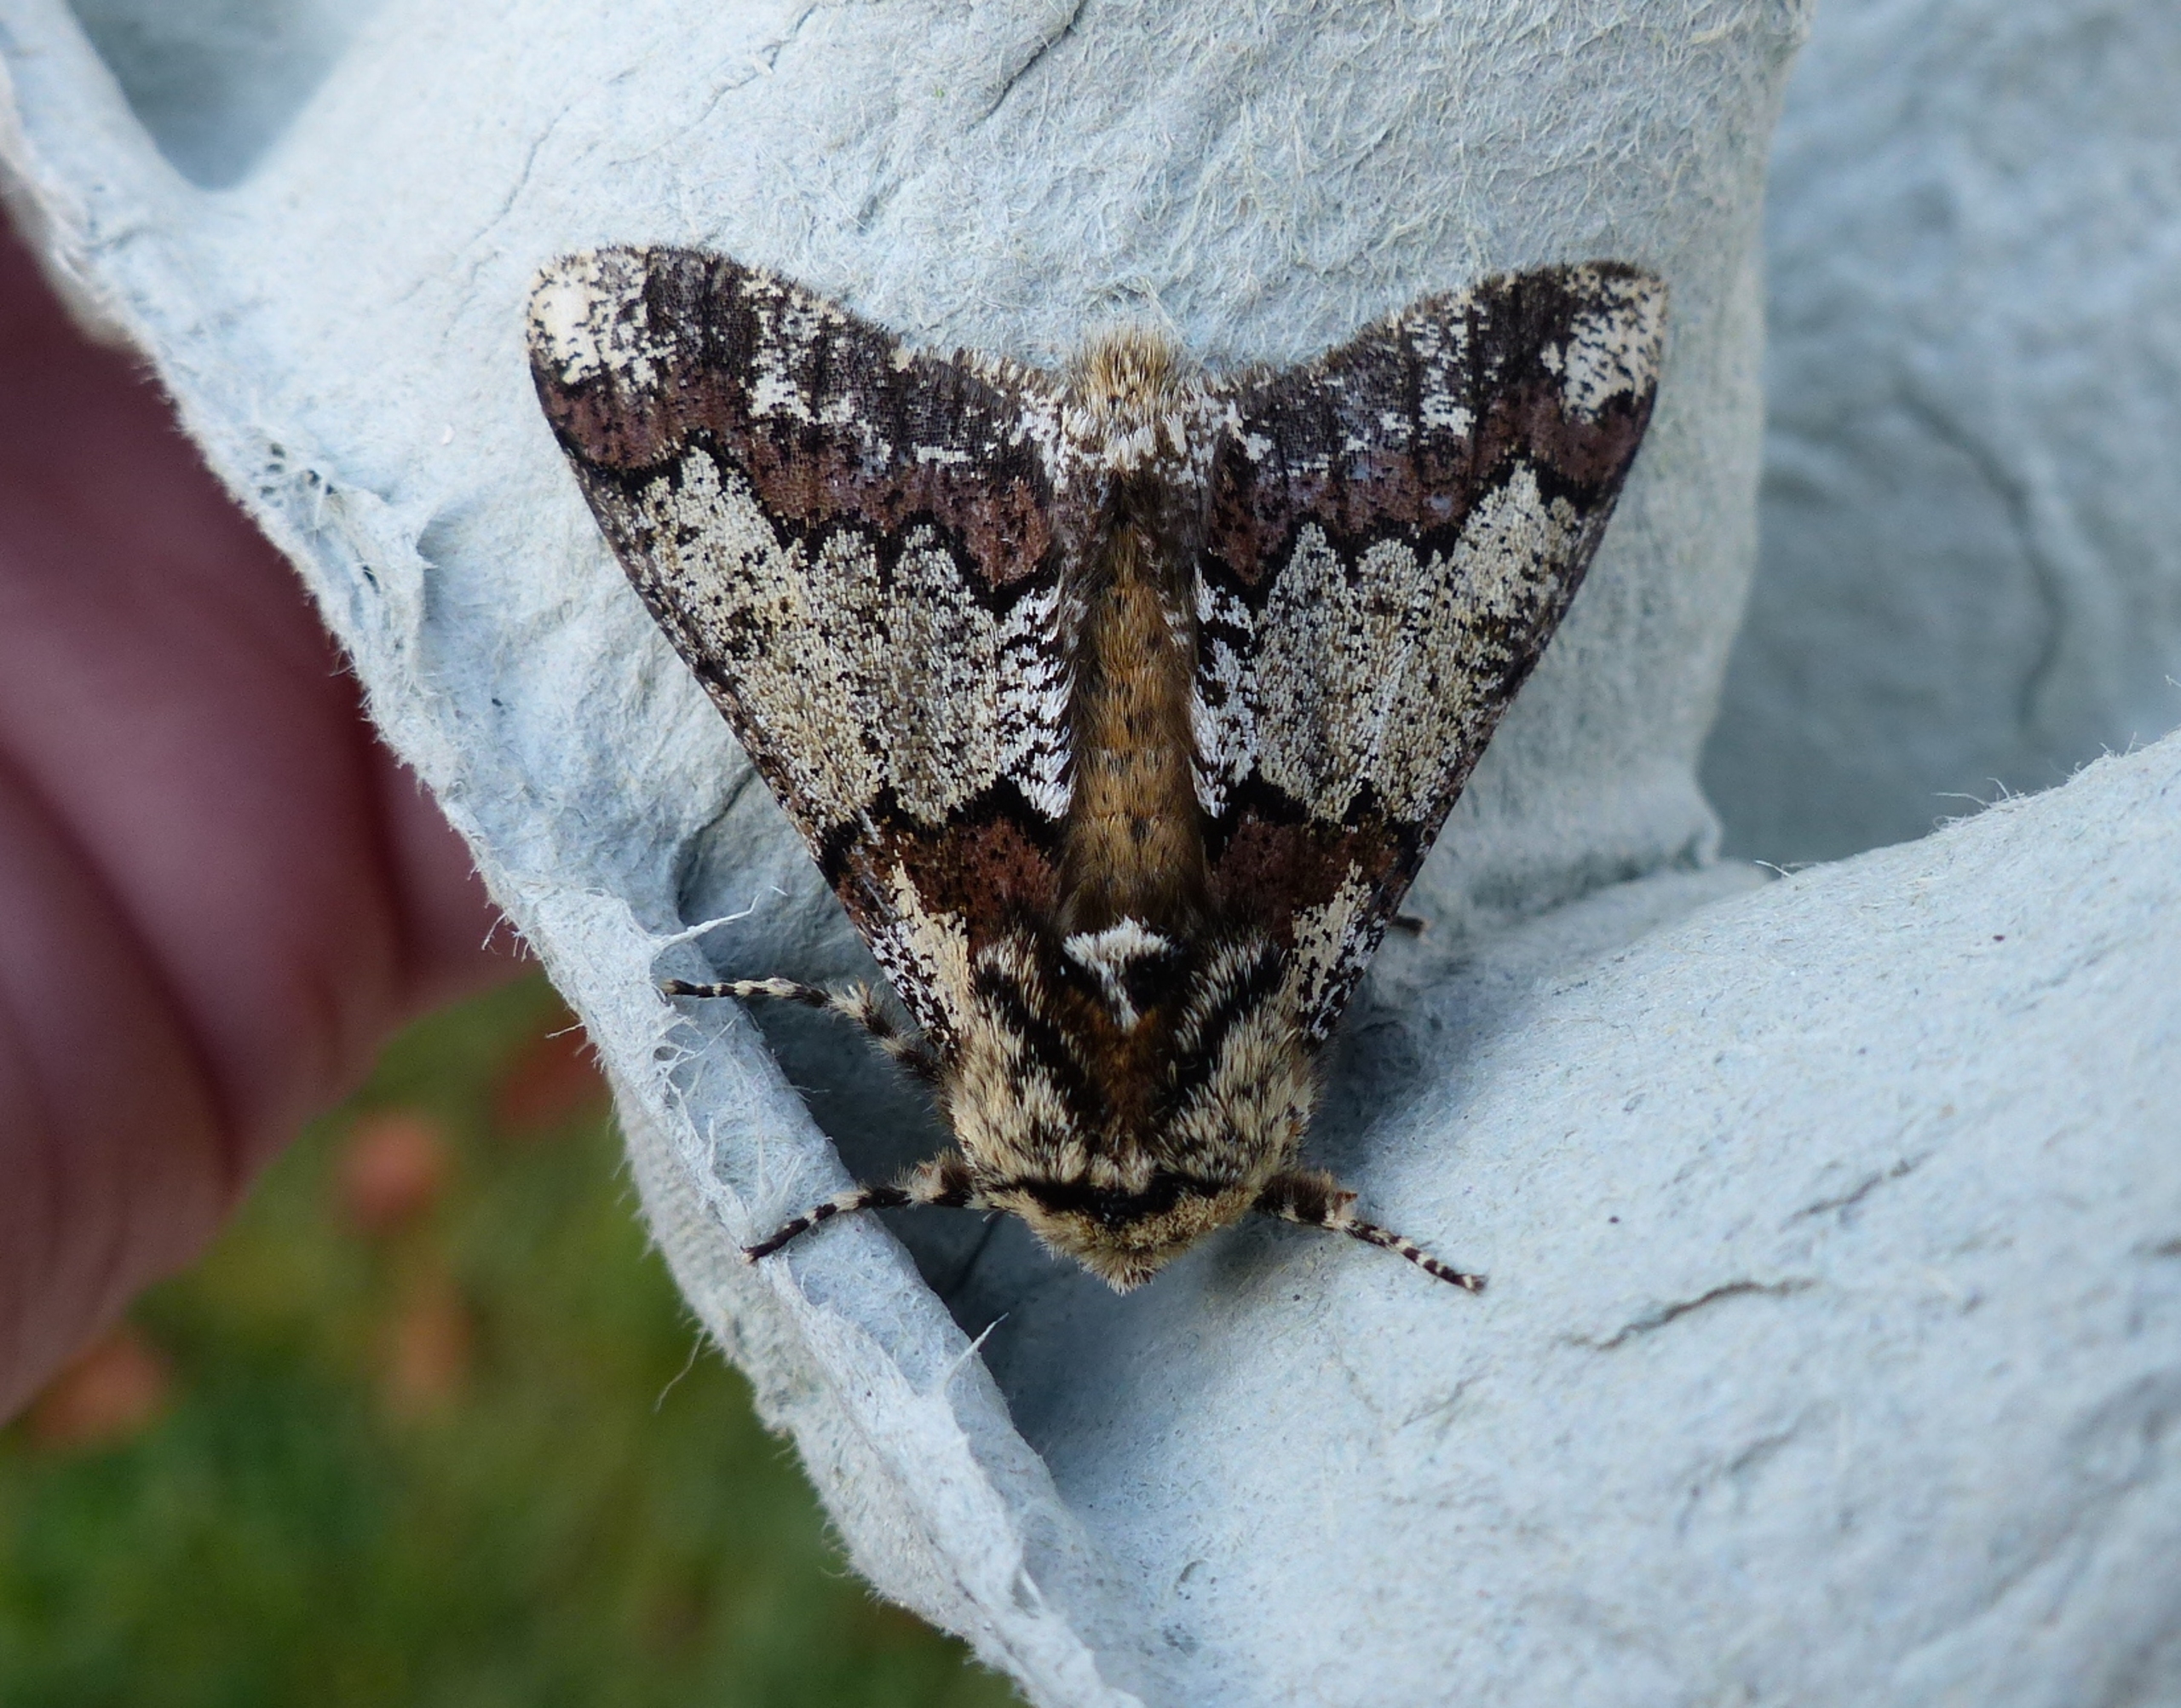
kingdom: Animalia
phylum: Arthropoda
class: Insecta
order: Lepidoptera
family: Geometridae
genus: Biston
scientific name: Biston strataria
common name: Broget vintermåler
